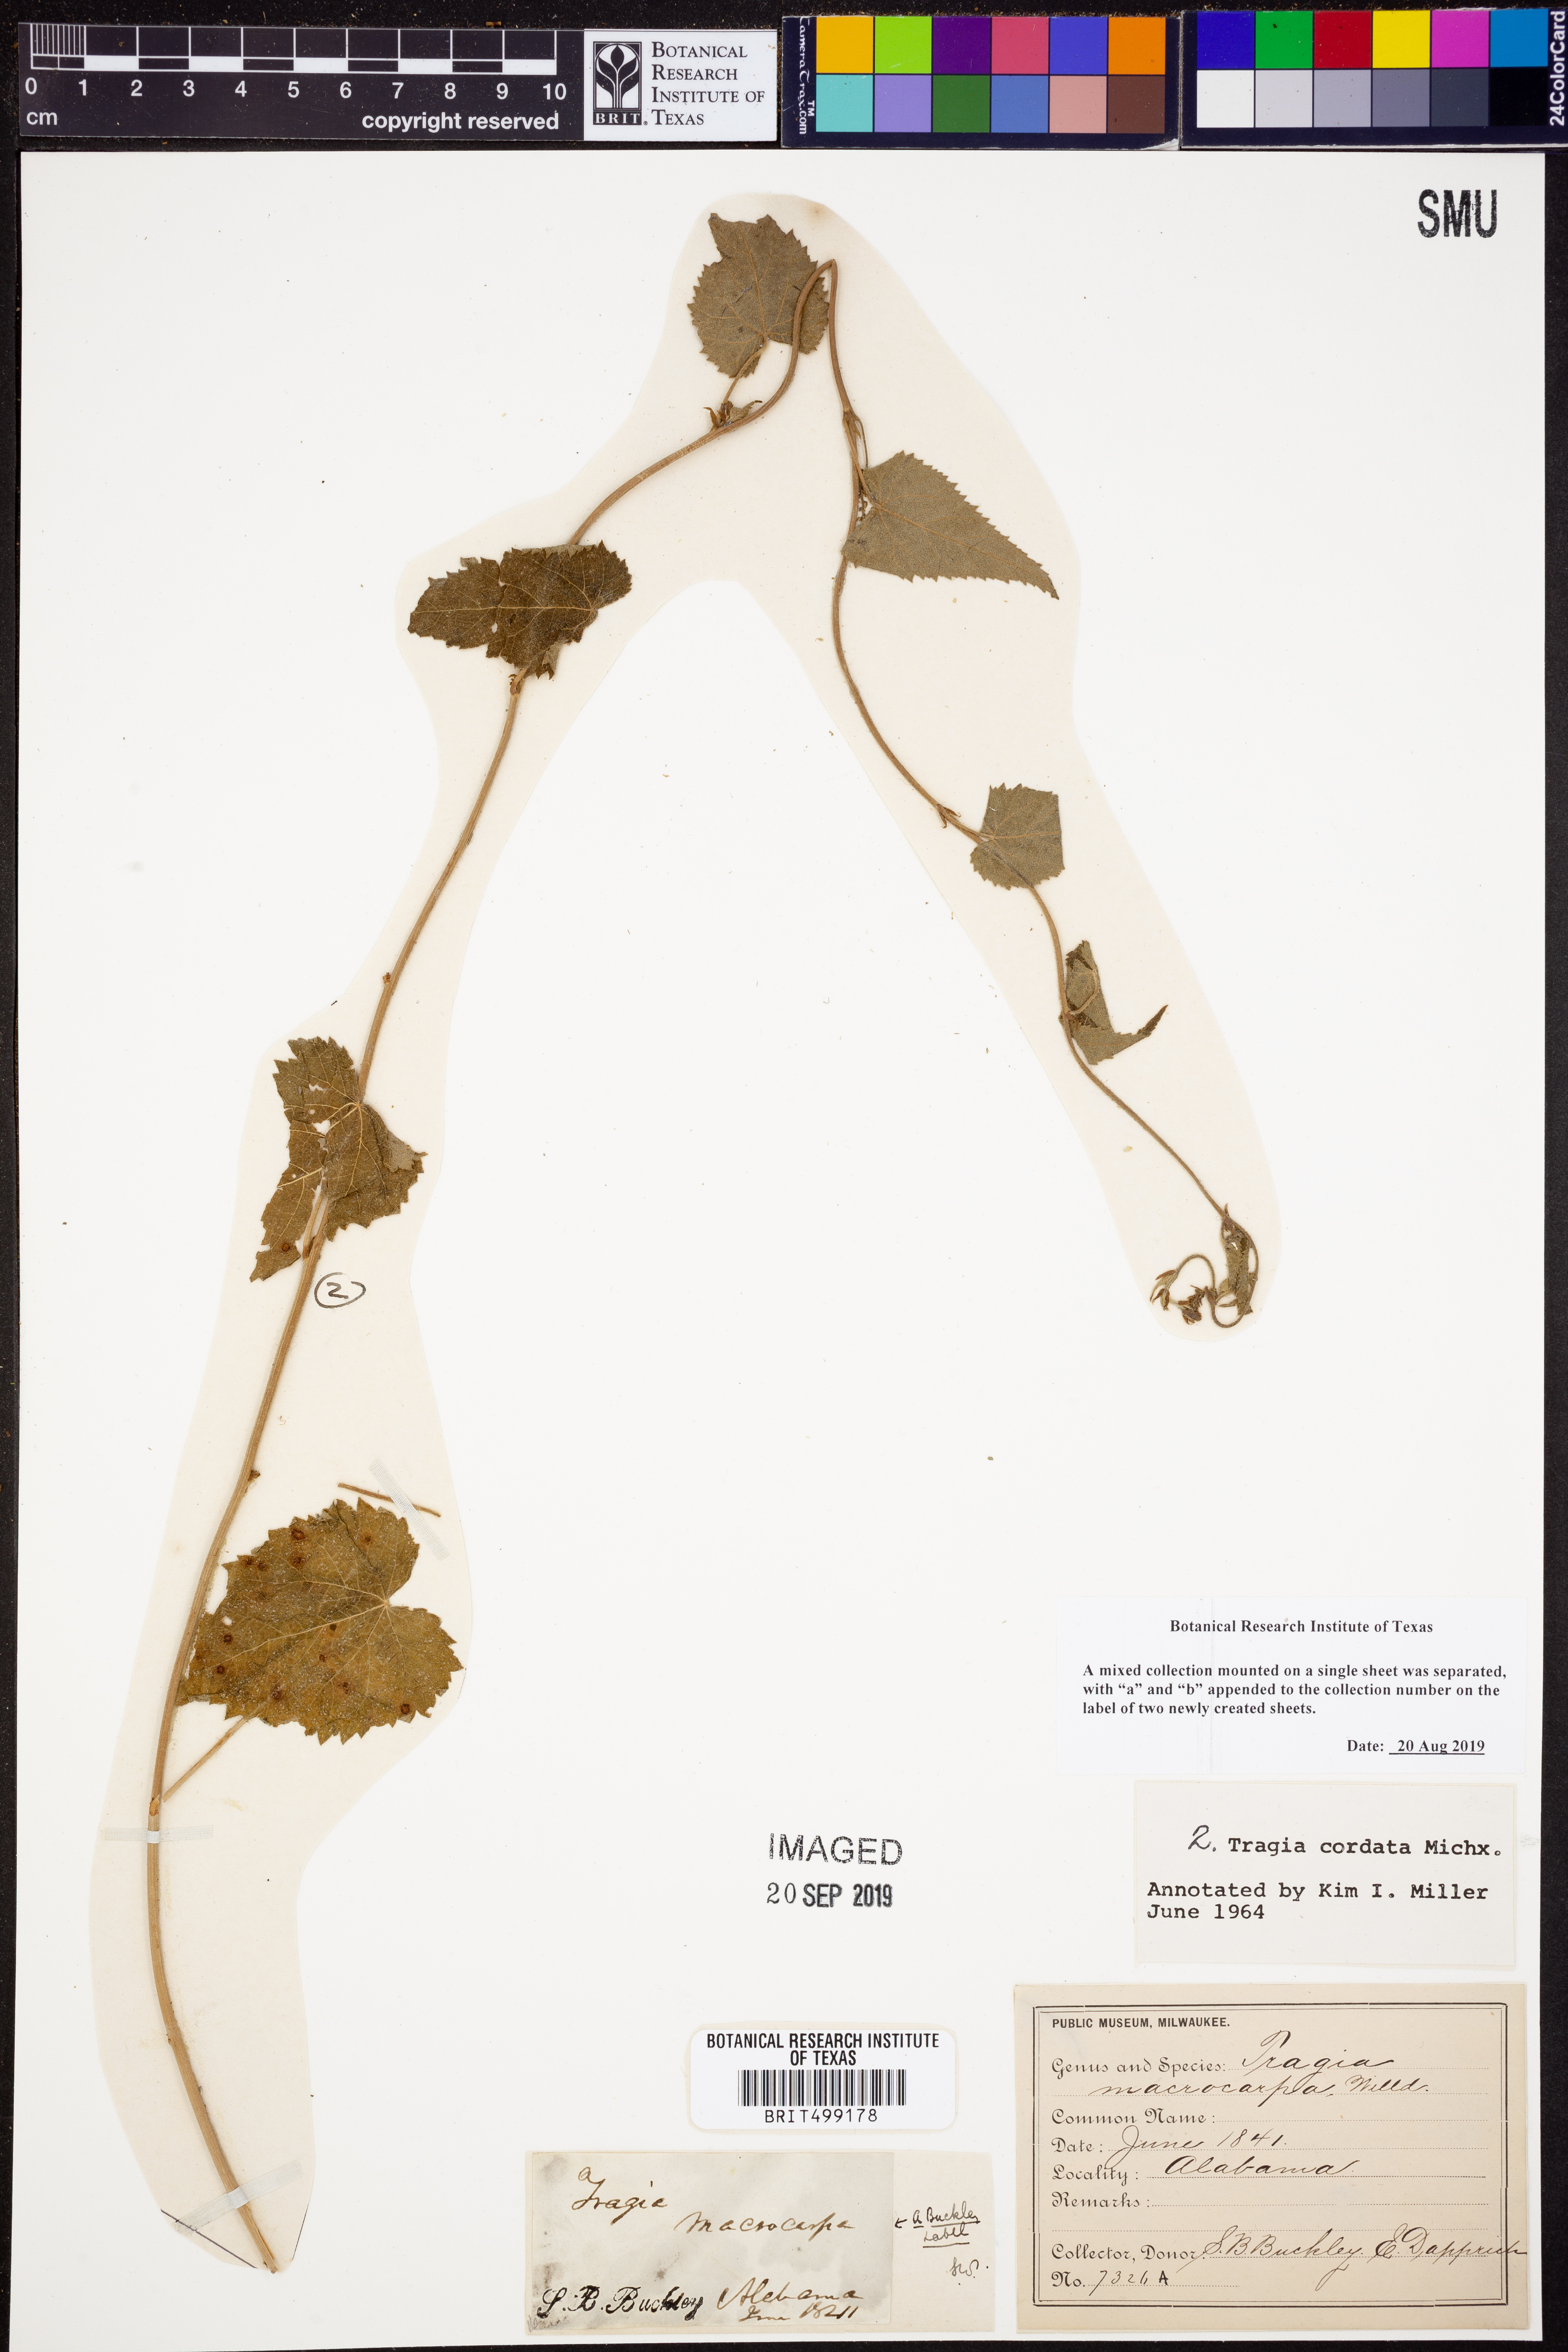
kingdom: Plantae
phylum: Tracheophyta
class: Magnoliopsida
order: Malpighiales
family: Euphorbiaceae
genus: Tragia
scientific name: Tragia cordata
